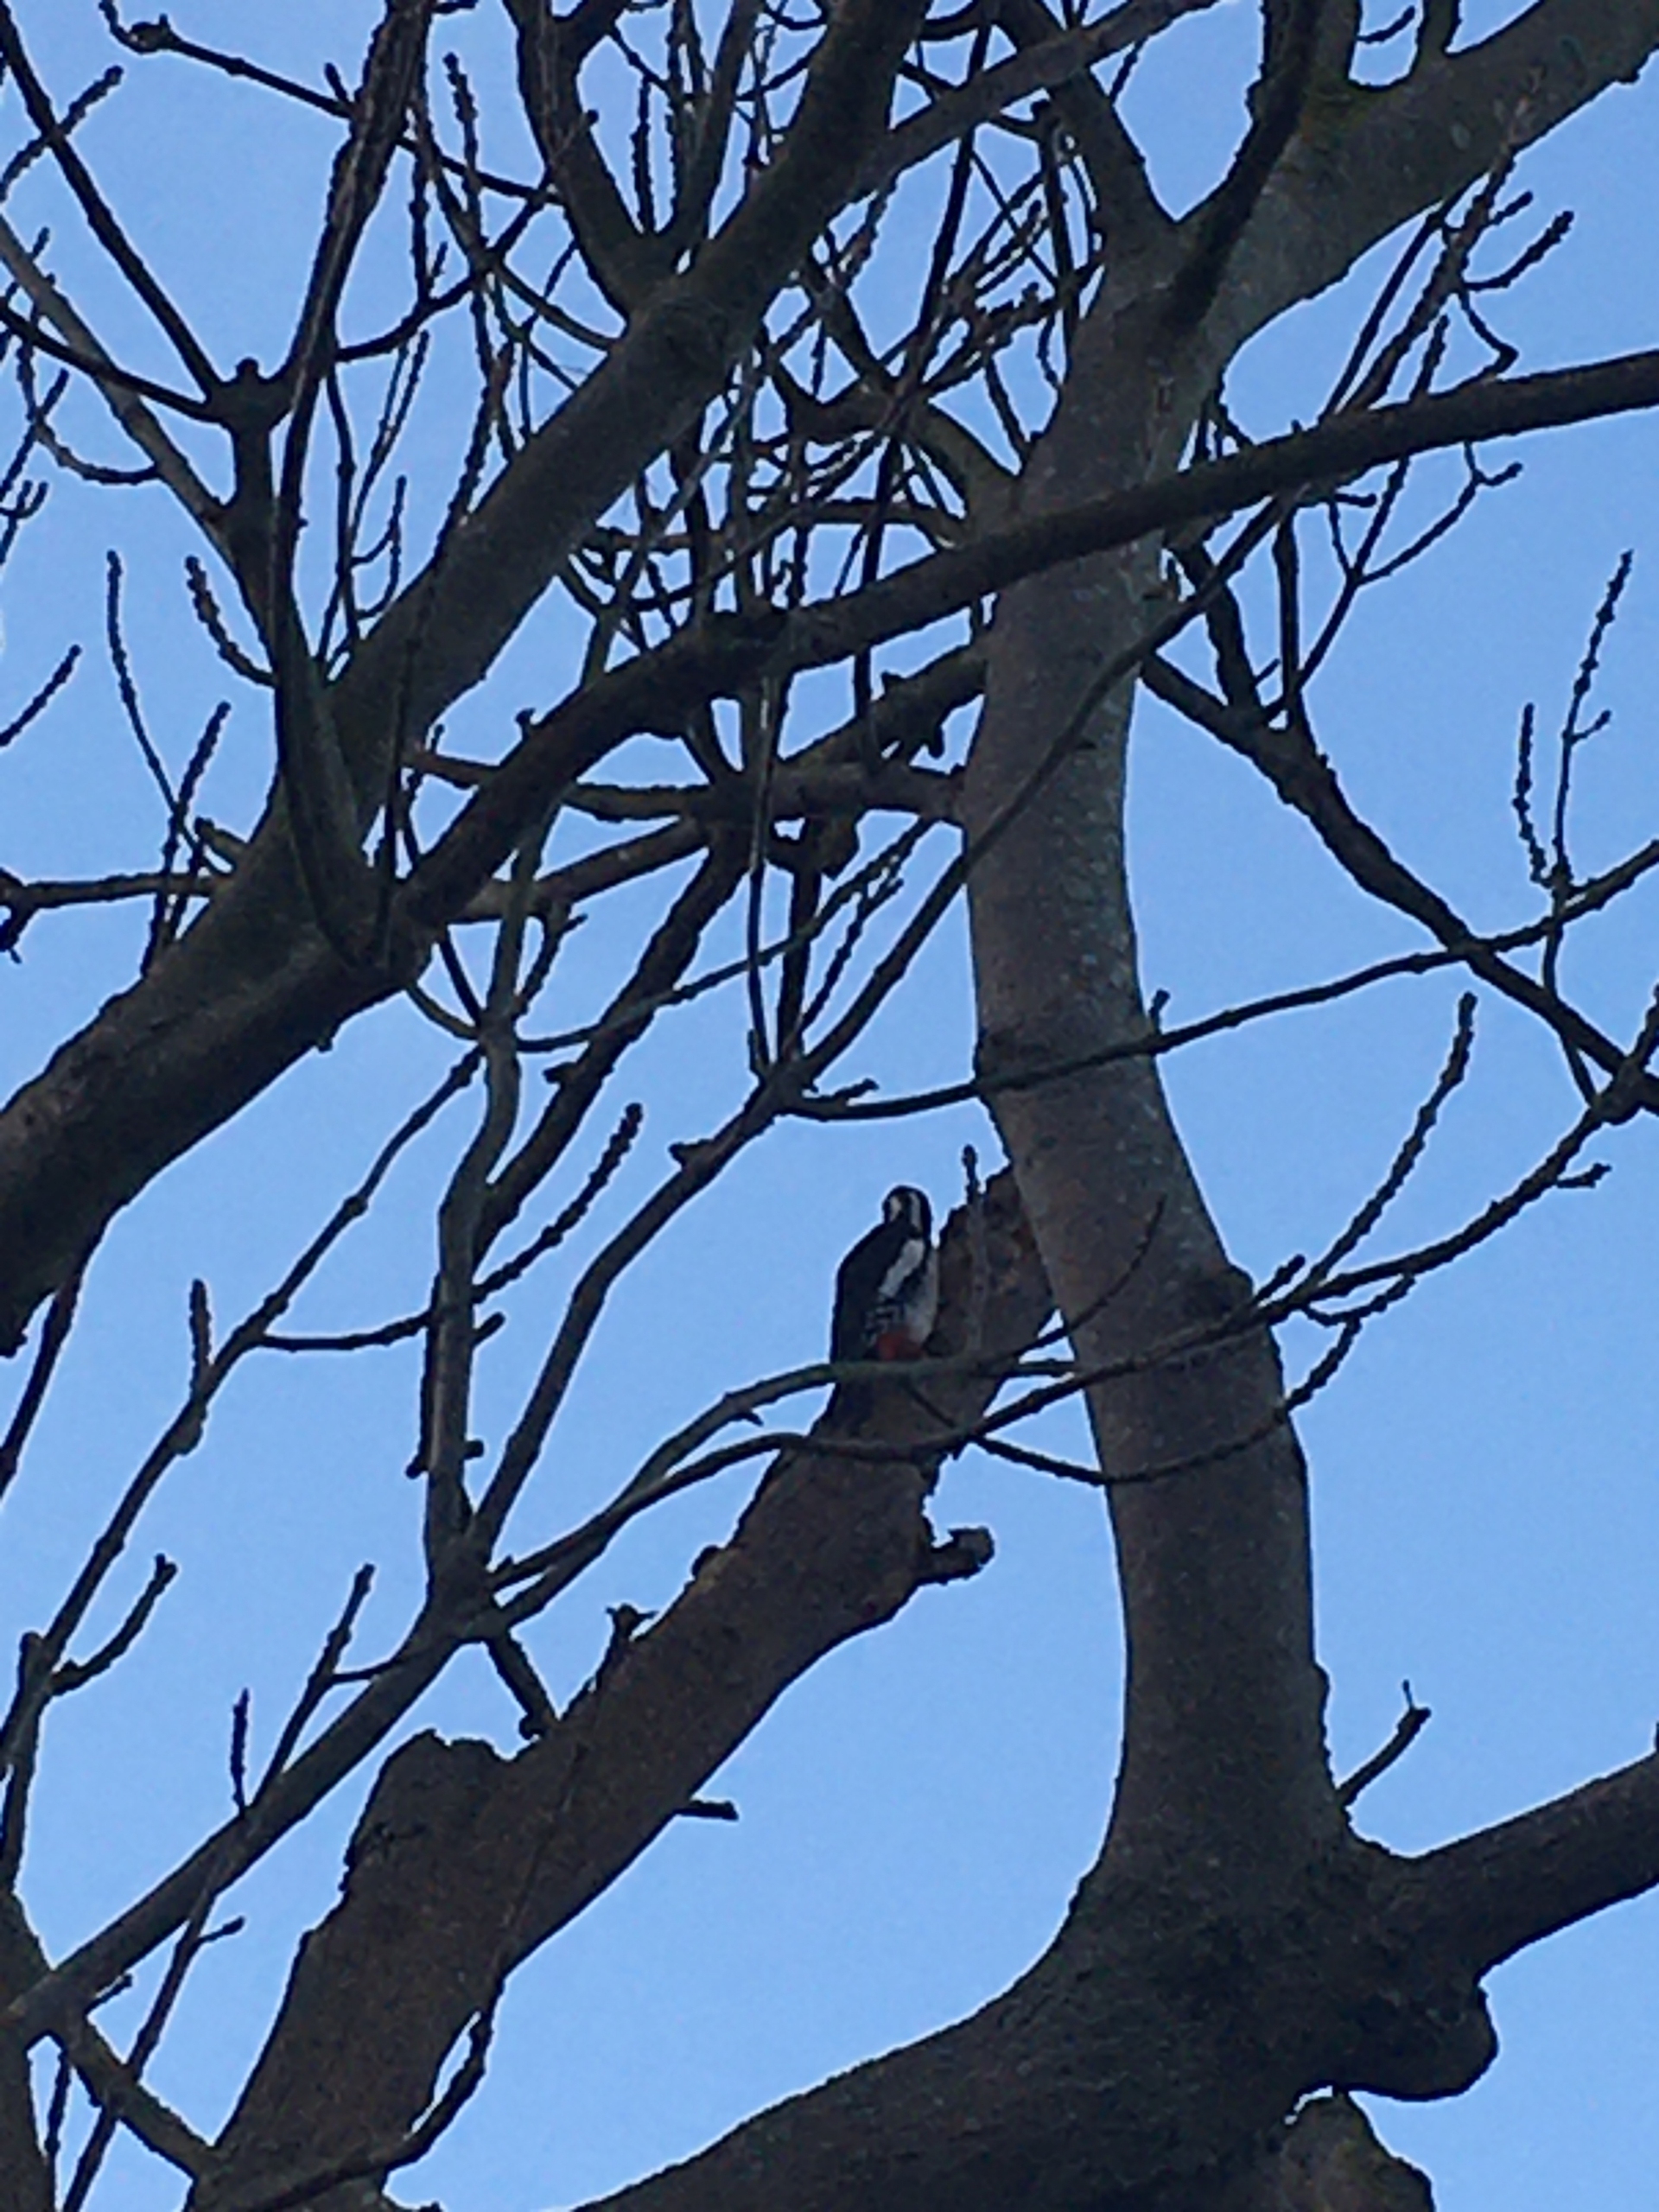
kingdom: Animalia
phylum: Chordata
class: Aves
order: Piciformes
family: Picidae
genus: Dendrocopos
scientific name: Dendrocopos major
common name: Stor flagspætte
